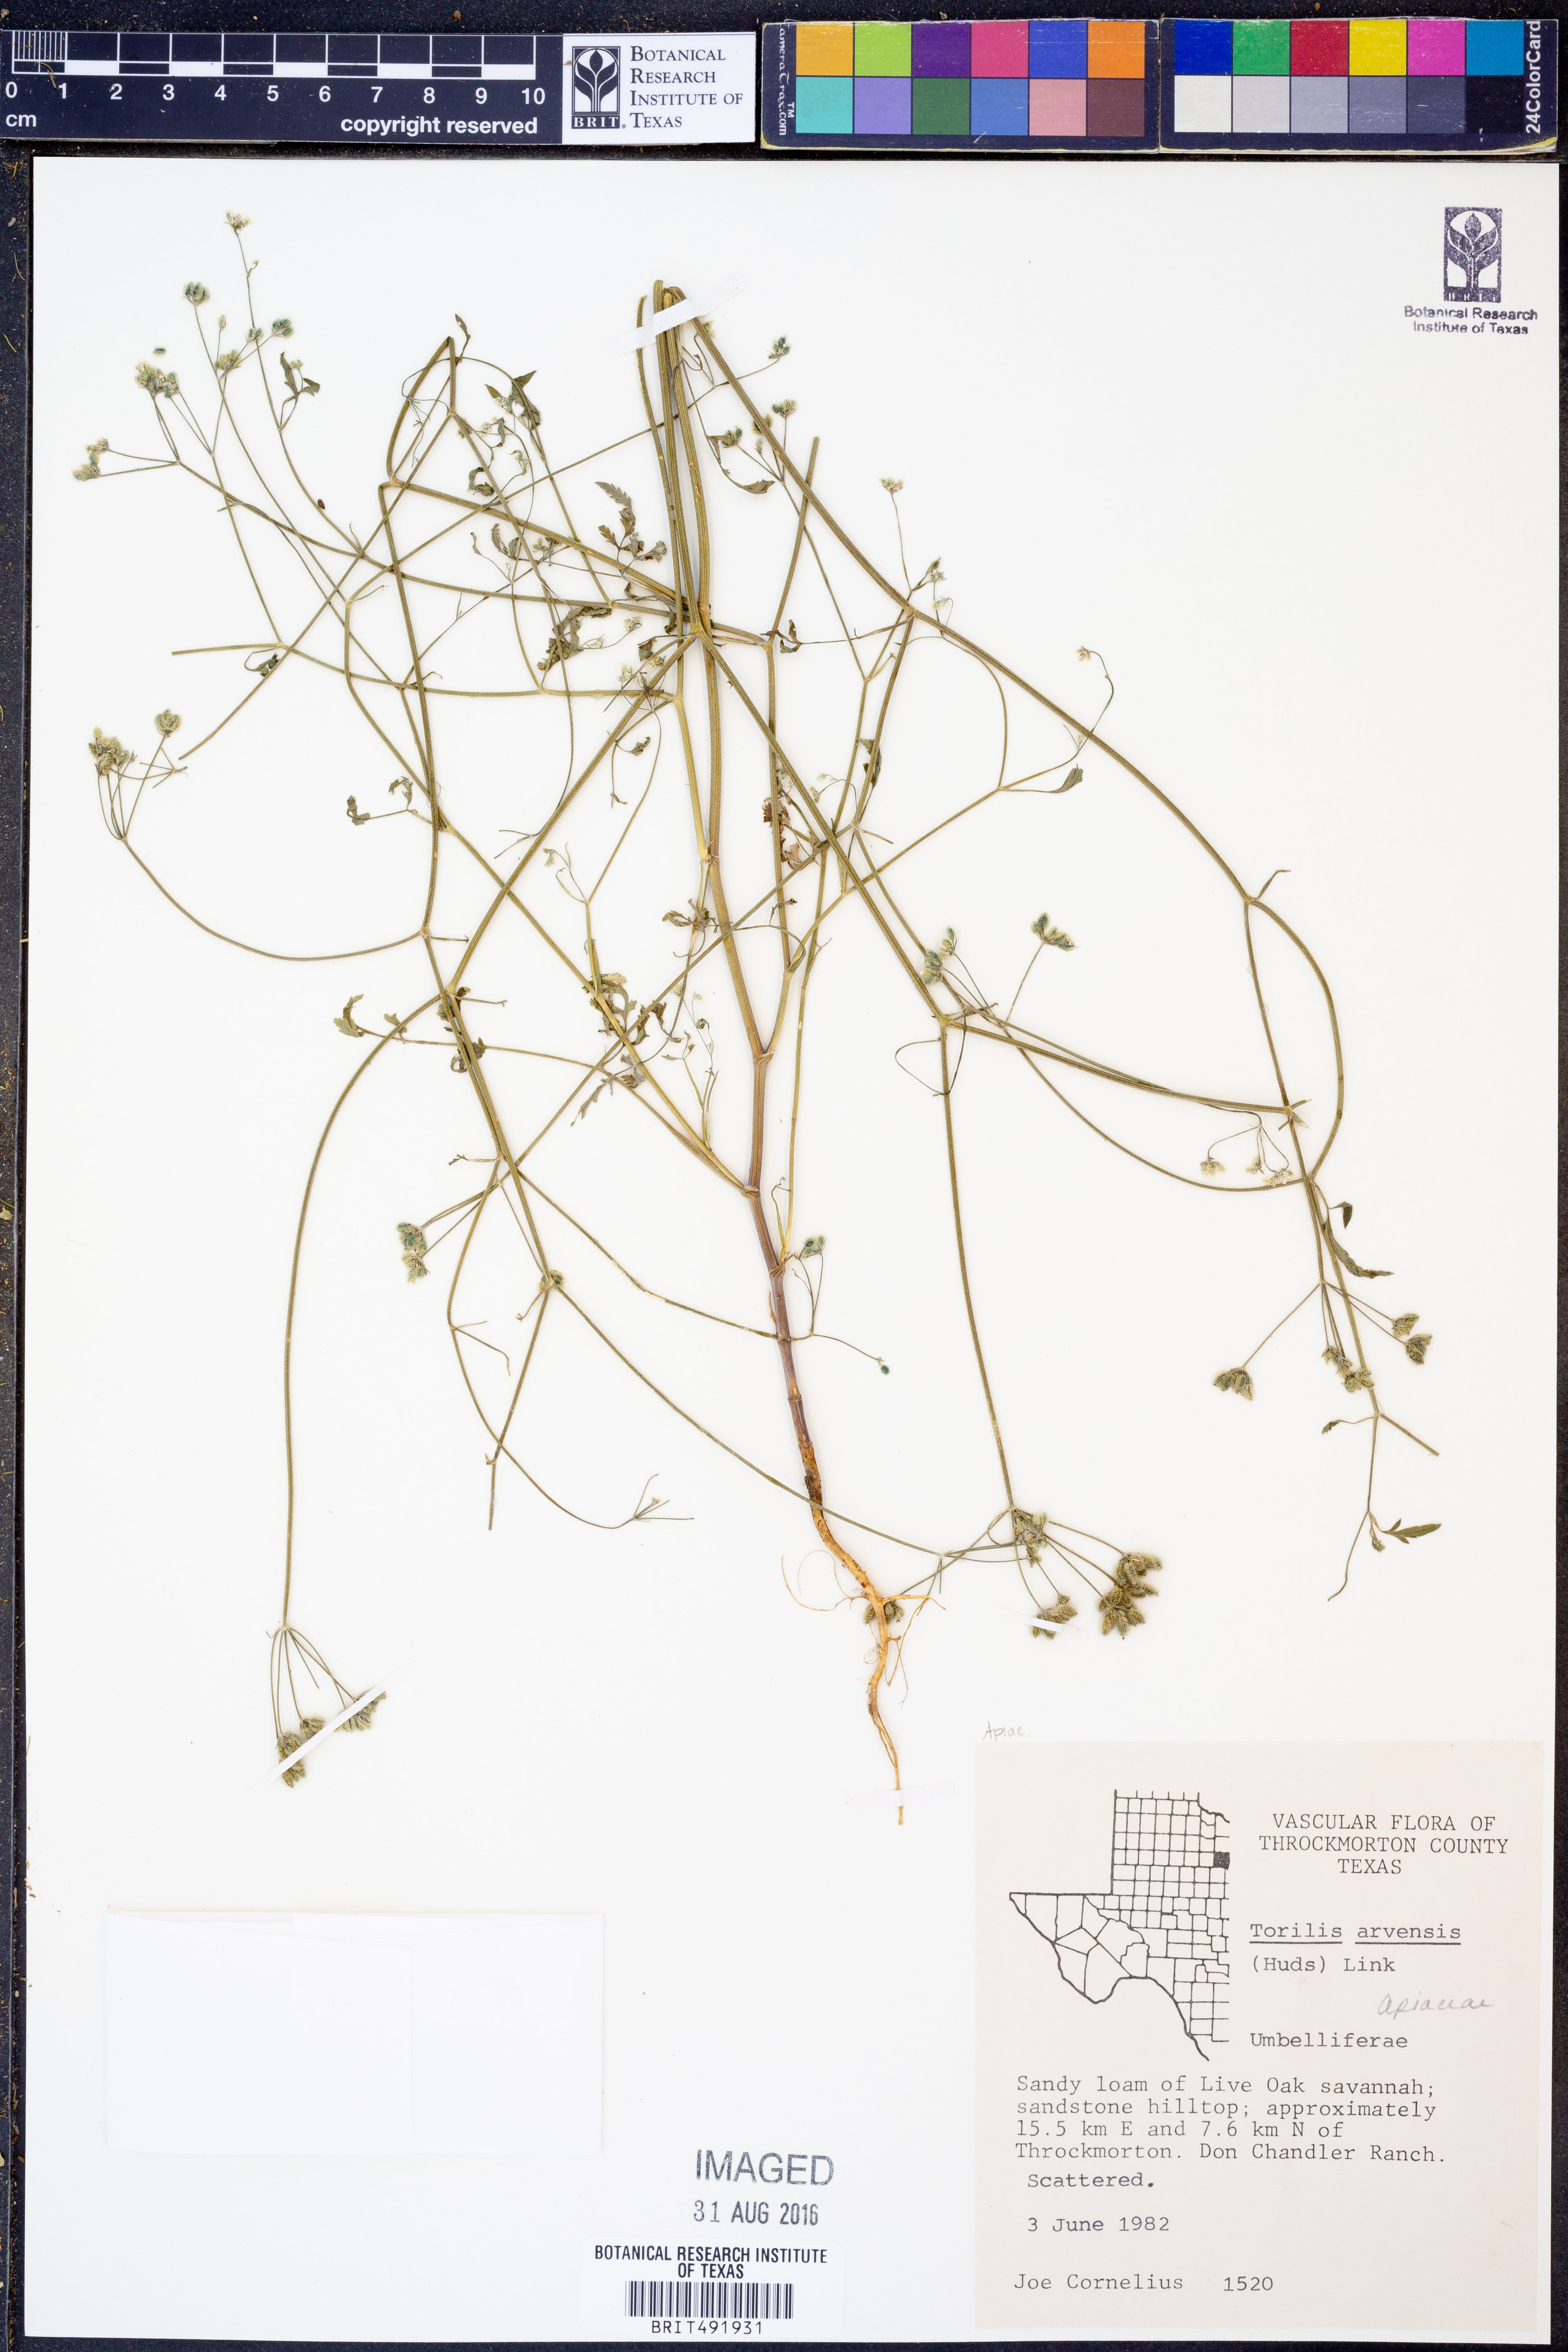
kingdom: Plantae
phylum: Tracheophyta
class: Magnoliopsida
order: Apiales
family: Apiaceae
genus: Torilis
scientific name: Torilis arvensis
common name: Spreading hedge-parsley
